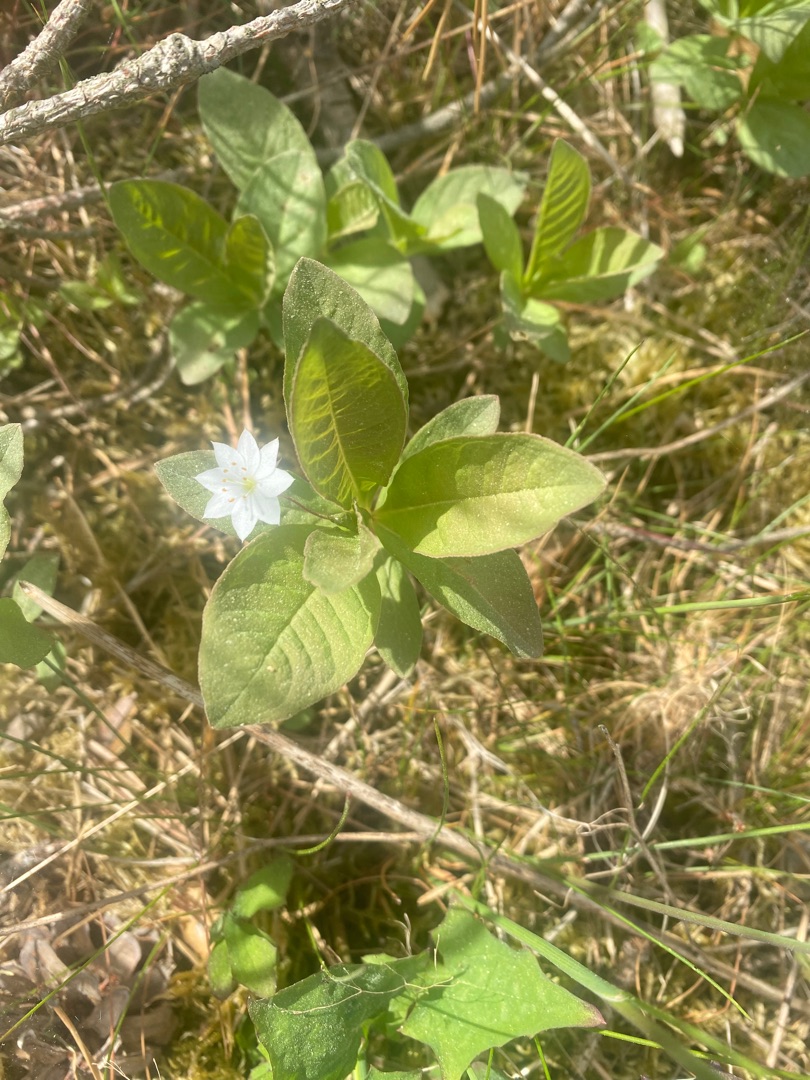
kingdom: Plantae
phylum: Tracheophyta
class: Magnoliopsida
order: Ericales
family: Primulaceae
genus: Lysimachia
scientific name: Lysimachia europaea
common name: Skovstjerne
